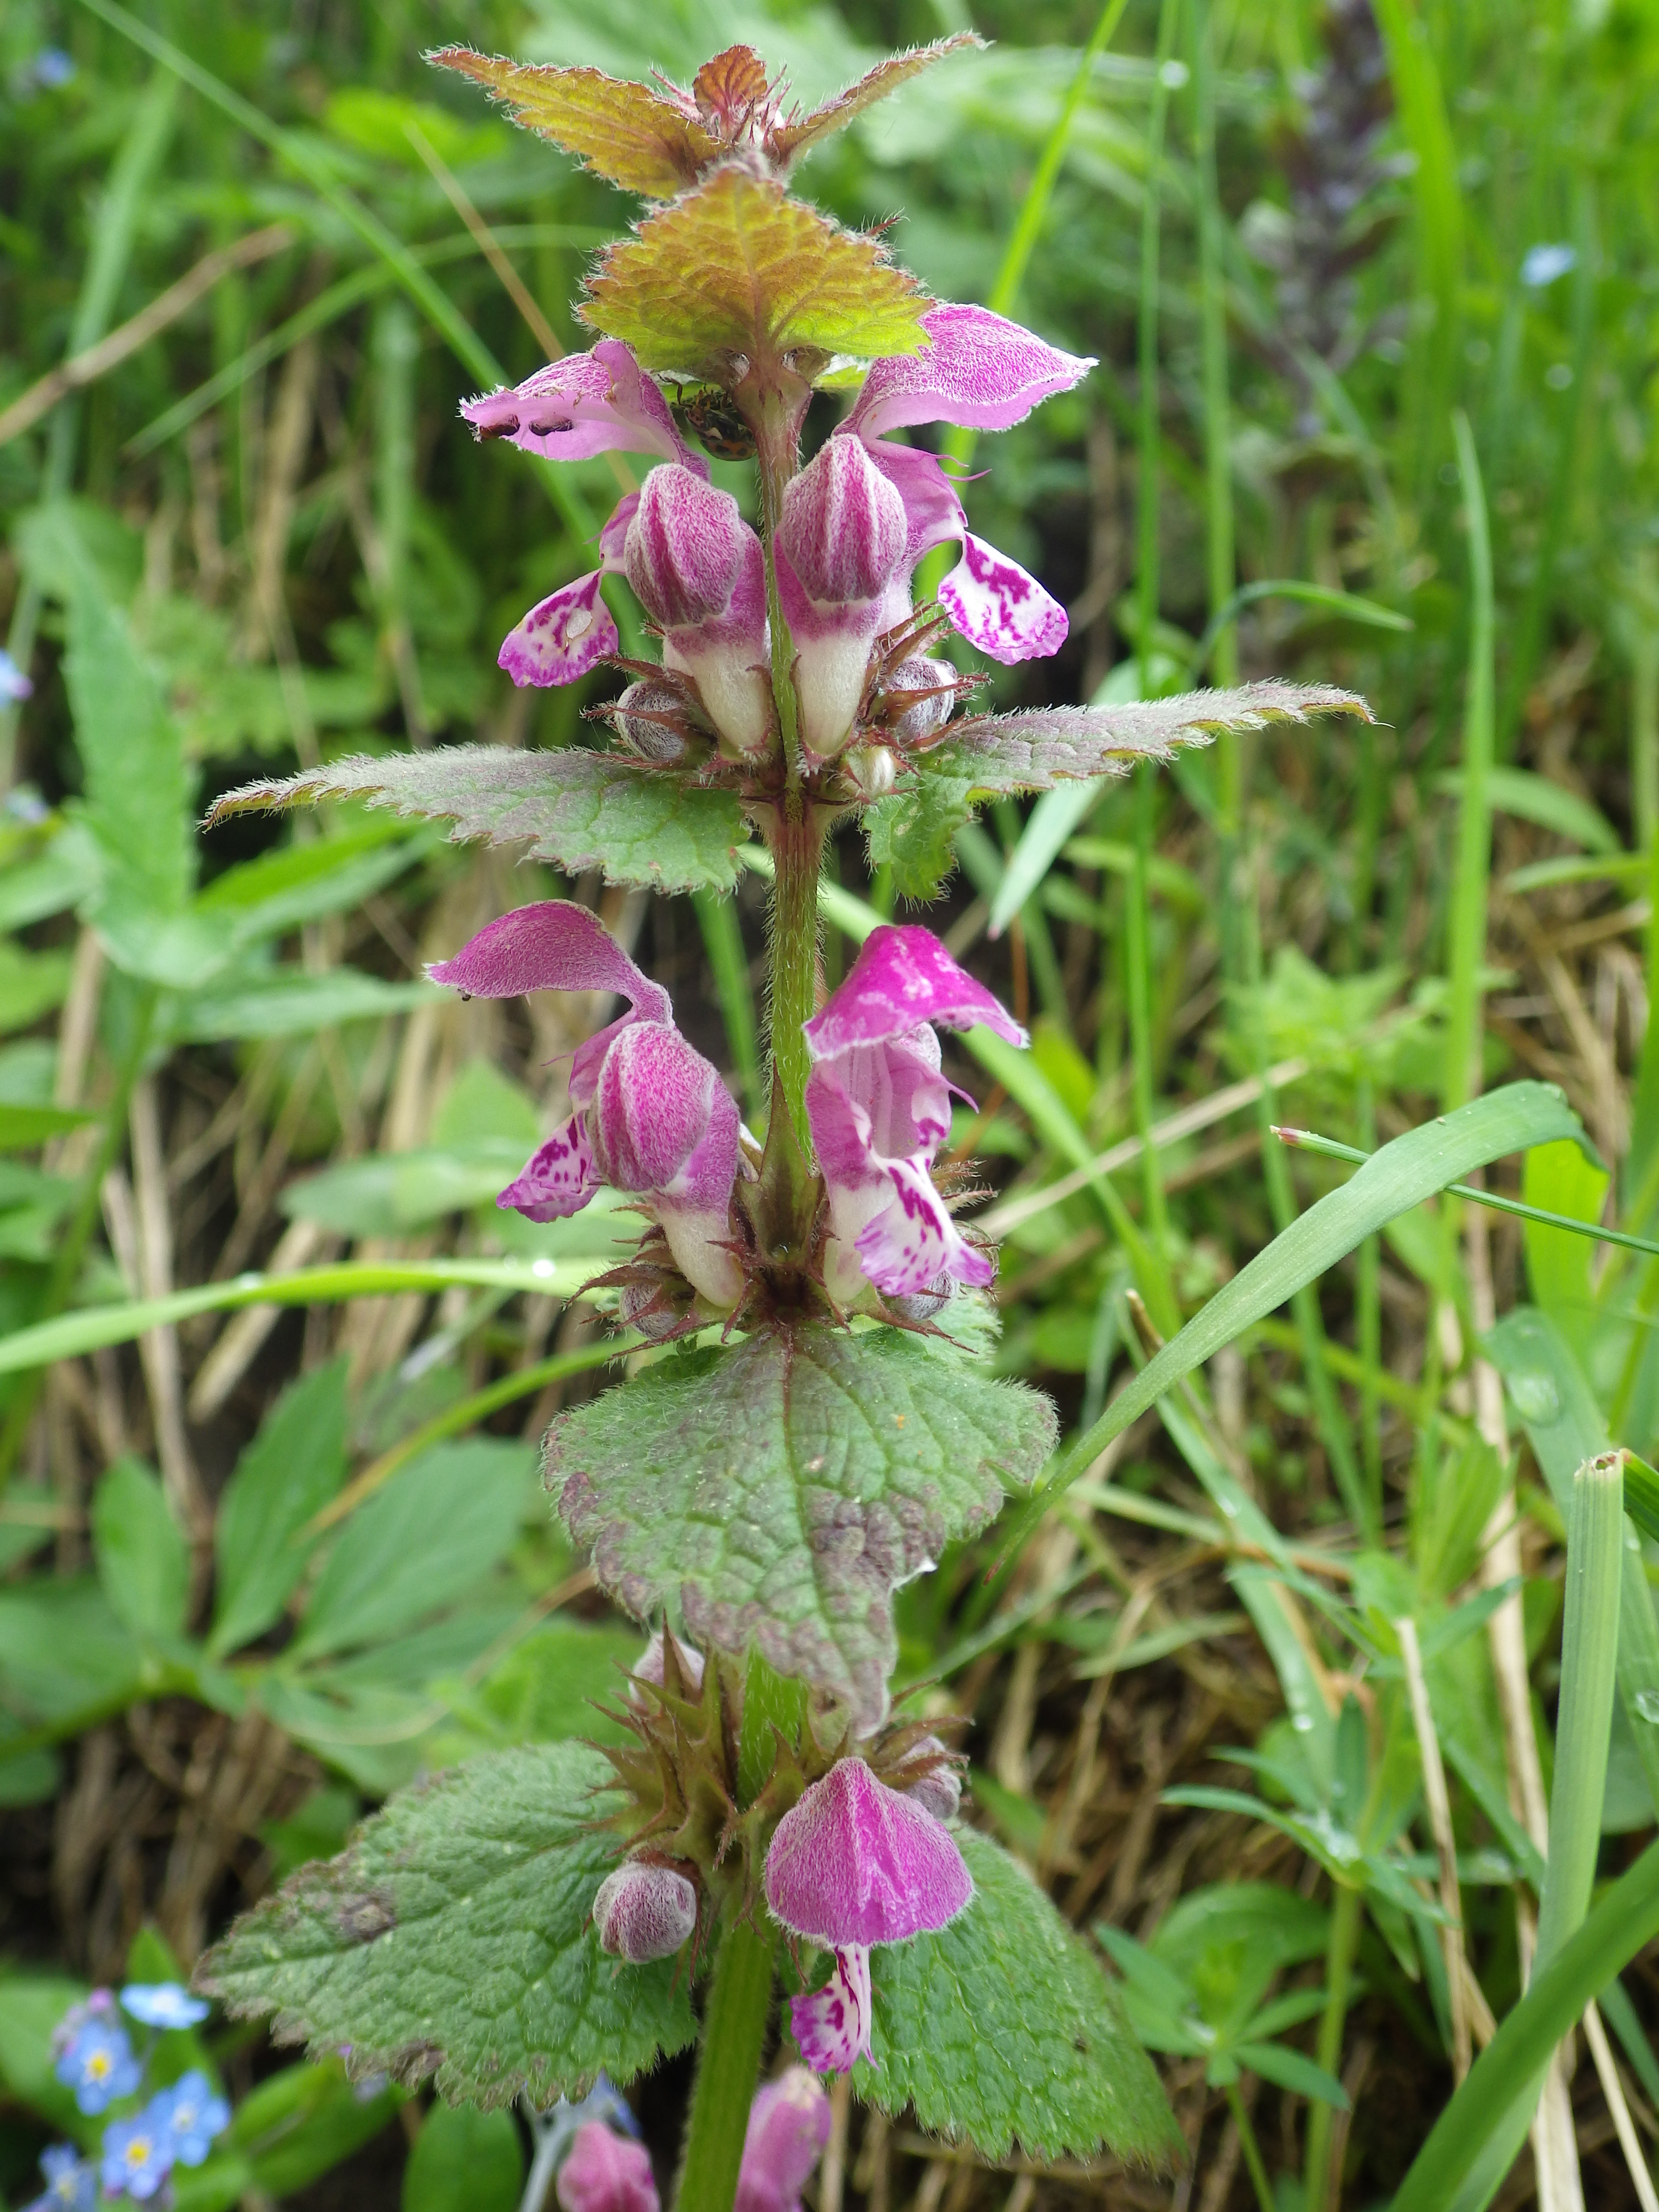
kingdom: Plantae
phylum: Tracheophyta
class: Magnoliopsida
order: Lamiales
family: Lamiaceae
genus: Lamium
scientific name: Lamium maculatum
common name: Spotted dead-nettle
